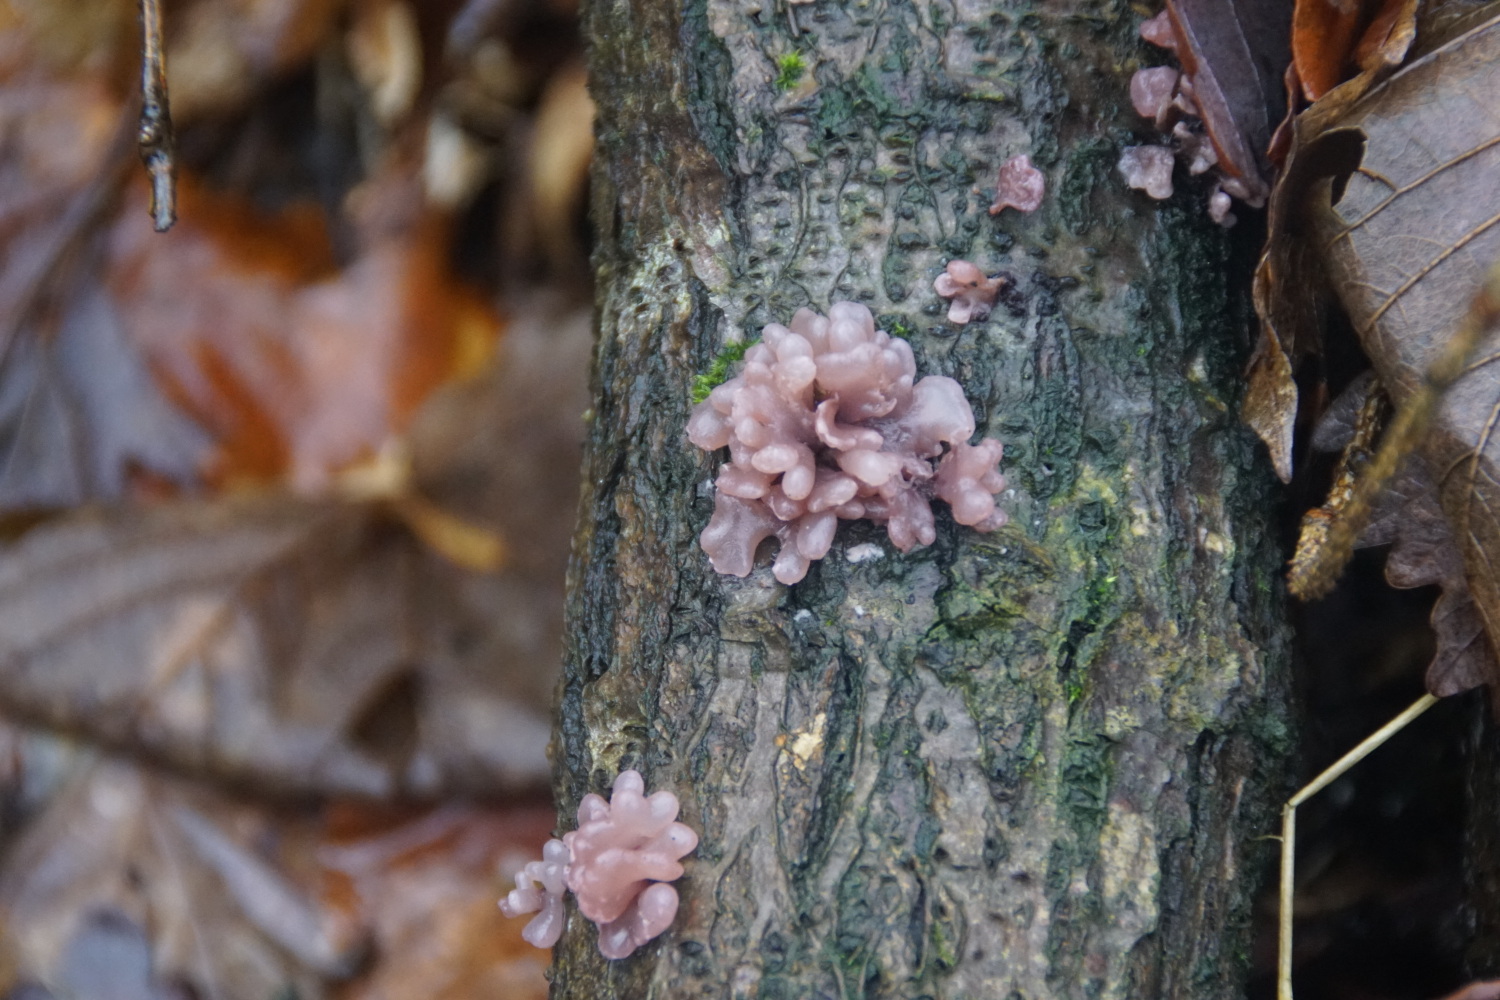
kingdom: Fungi
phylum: Ascomycota
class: Leotiomycetes
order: Helotiales
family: Gelatinodiscaceae
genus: Ascocoryne
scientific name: Ascocoryne sarcoides
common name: rødlilla sejskive
